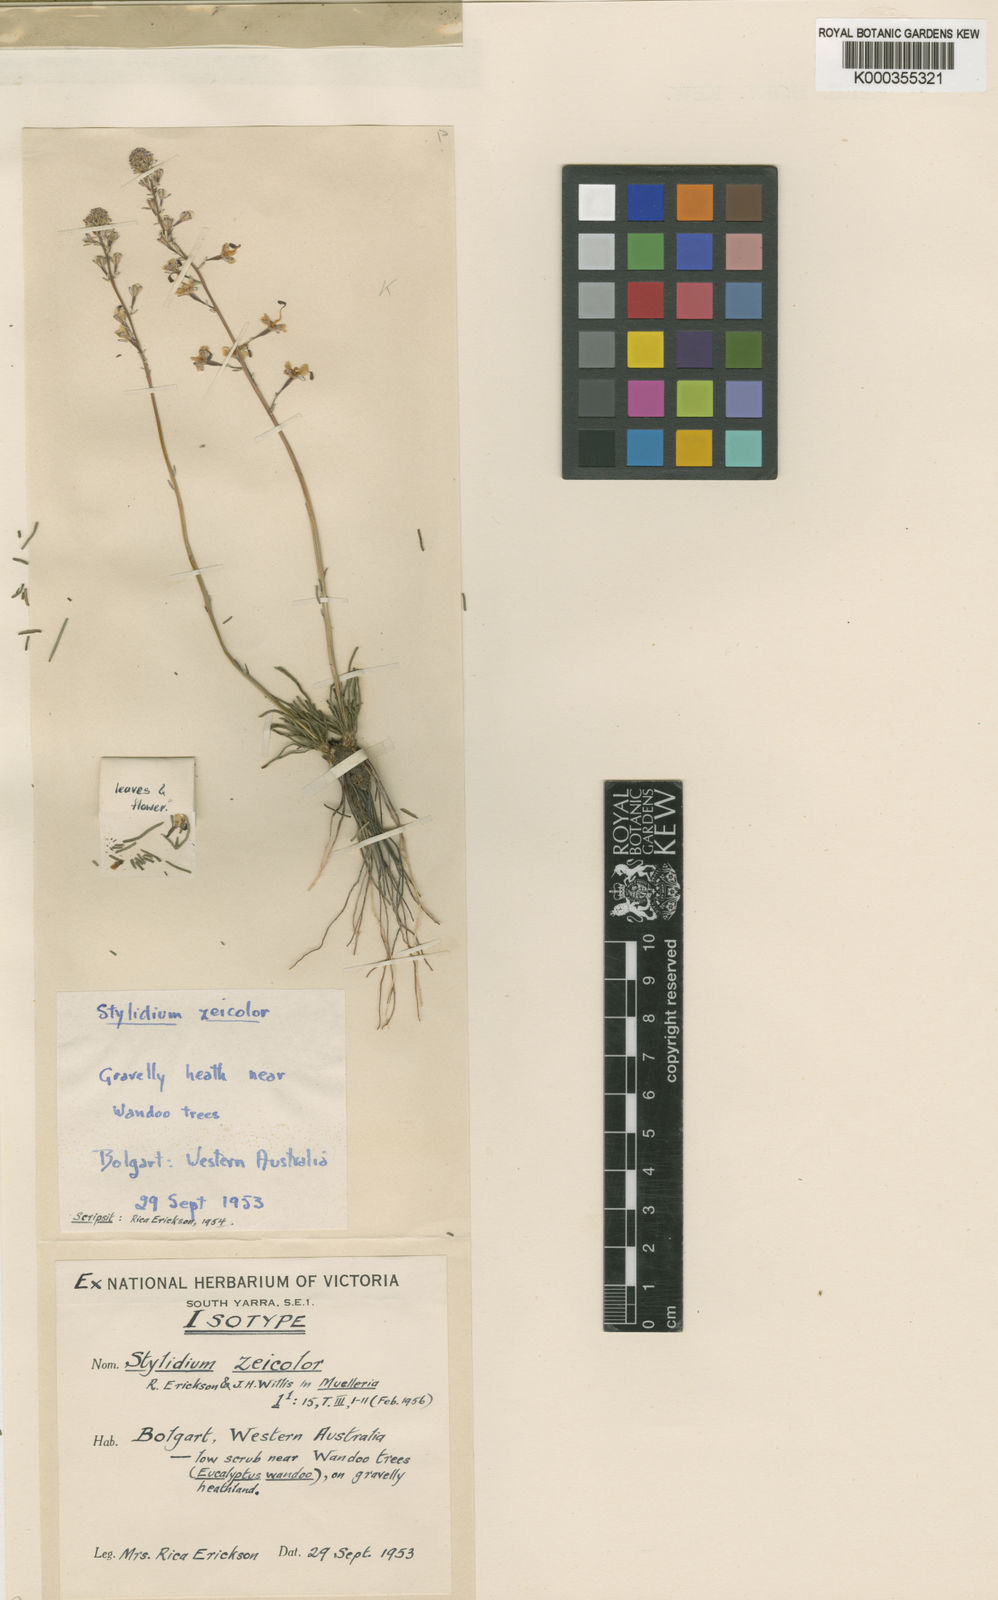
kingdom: Plantae
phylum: Tracheophyta
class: Magnoliopsida
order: Asterales
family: Stylidiaceae
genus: Stylidium
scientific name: Stylidium zeicolor
